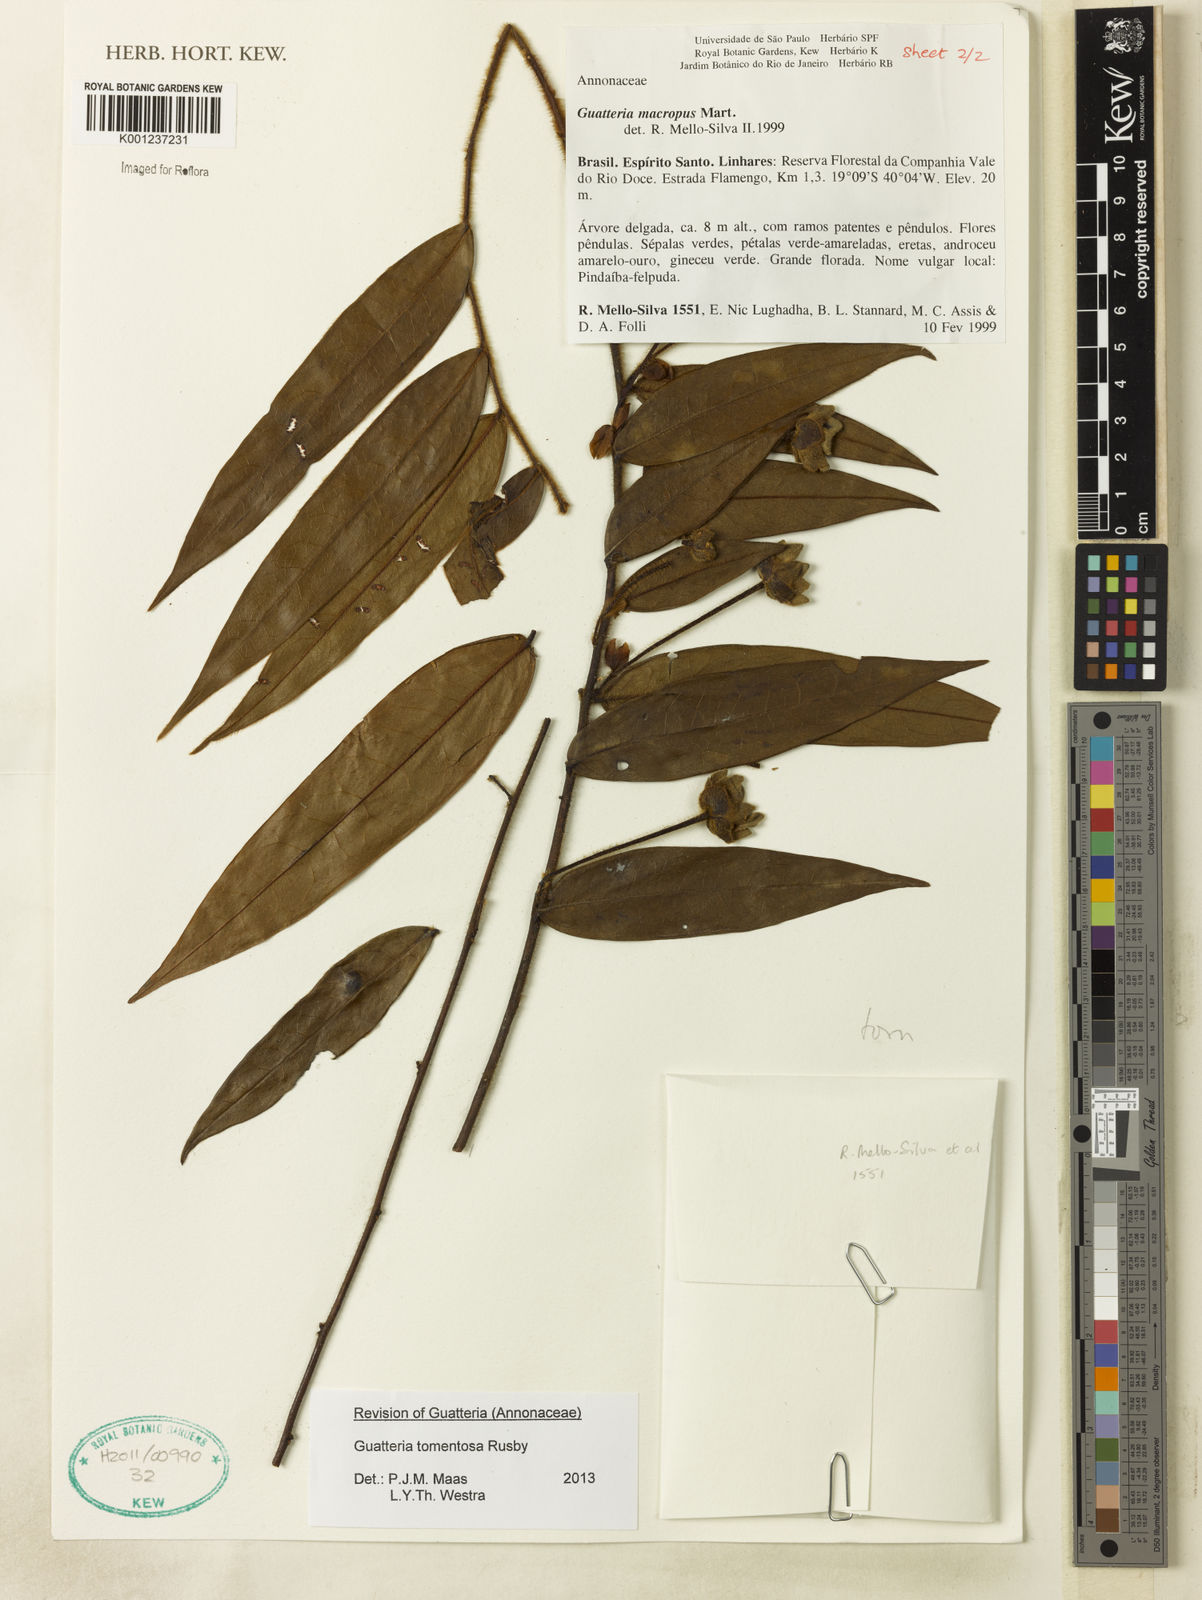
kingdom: Plantae
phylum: Tracheophyta
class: Magnoliopsida
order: Magnoliales
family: Annonaceae
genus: Guatteria
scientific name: Guatteria tomentosa
